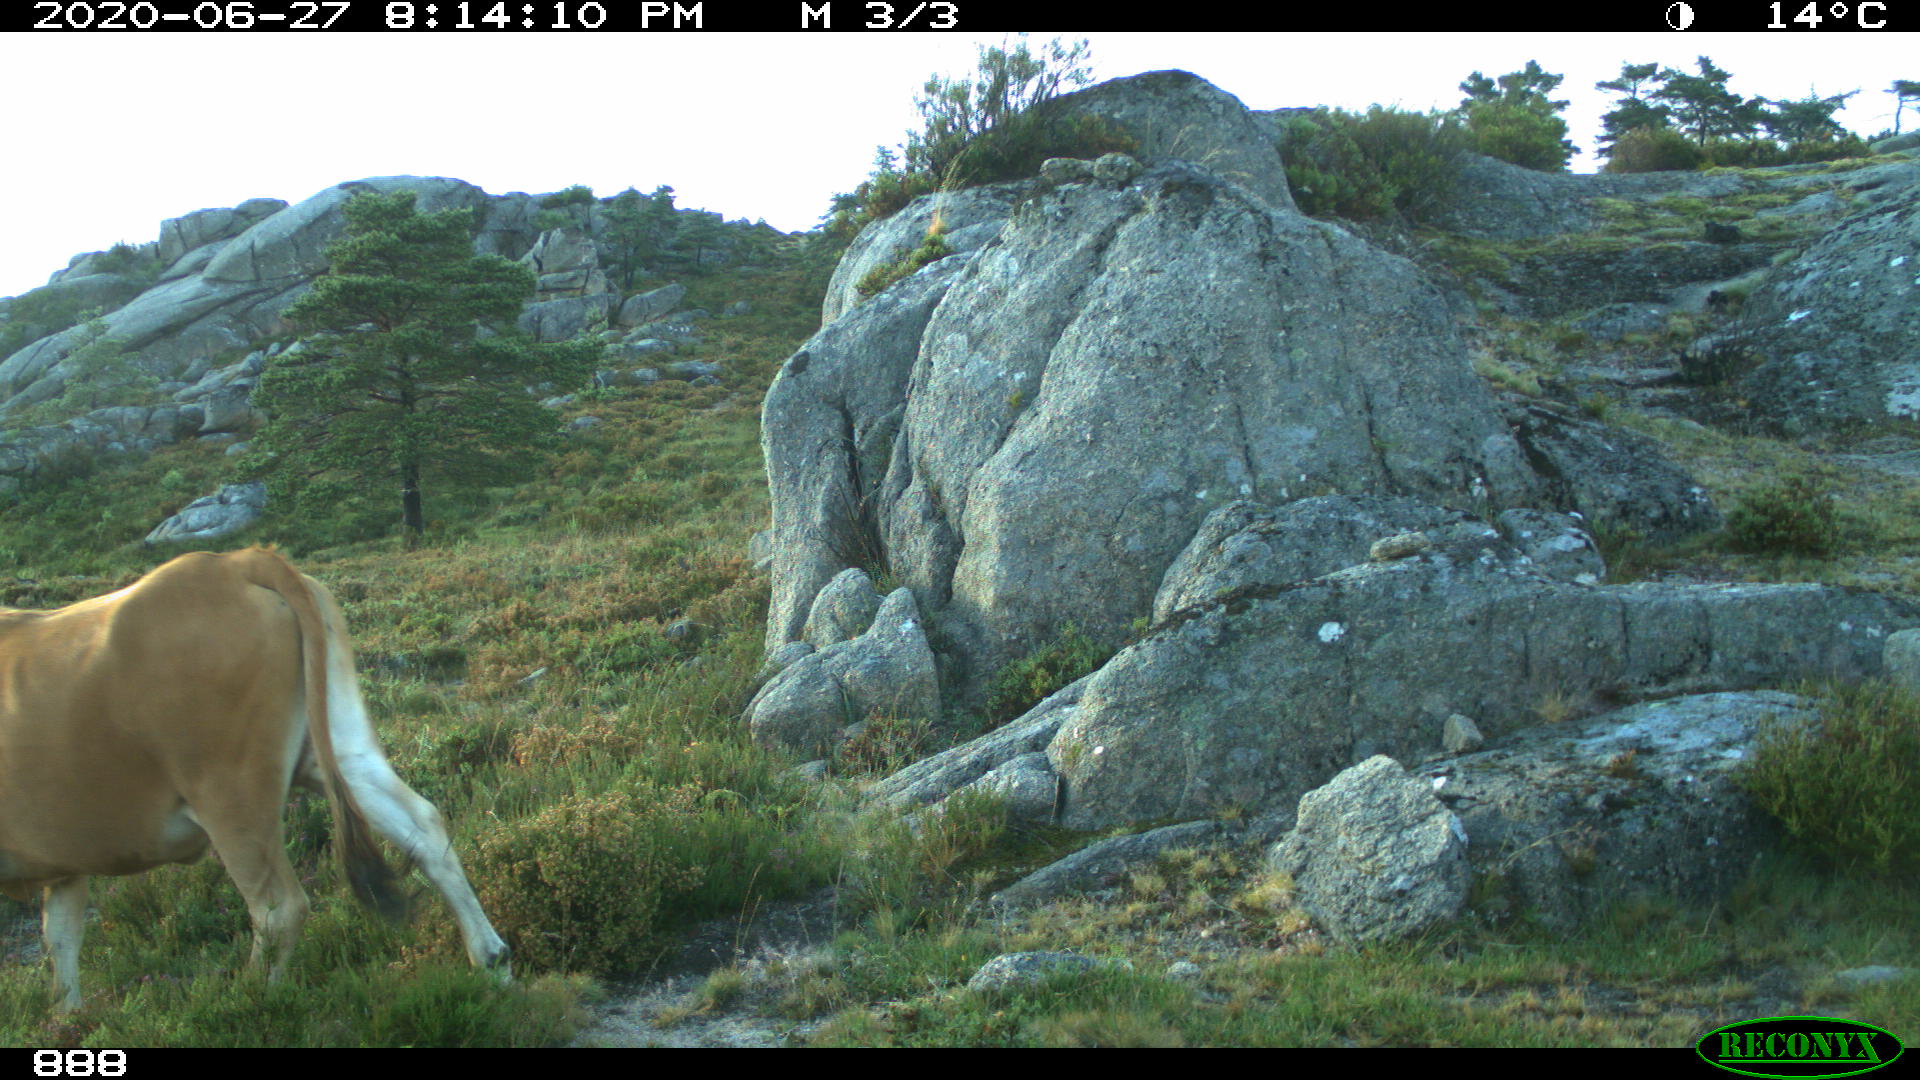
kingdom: Animalia
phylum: Chordata
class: Mammalia
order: Artiodactyla
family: Bovidae
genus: Bos
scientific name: Bos taurus
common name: Domesticated cattle
